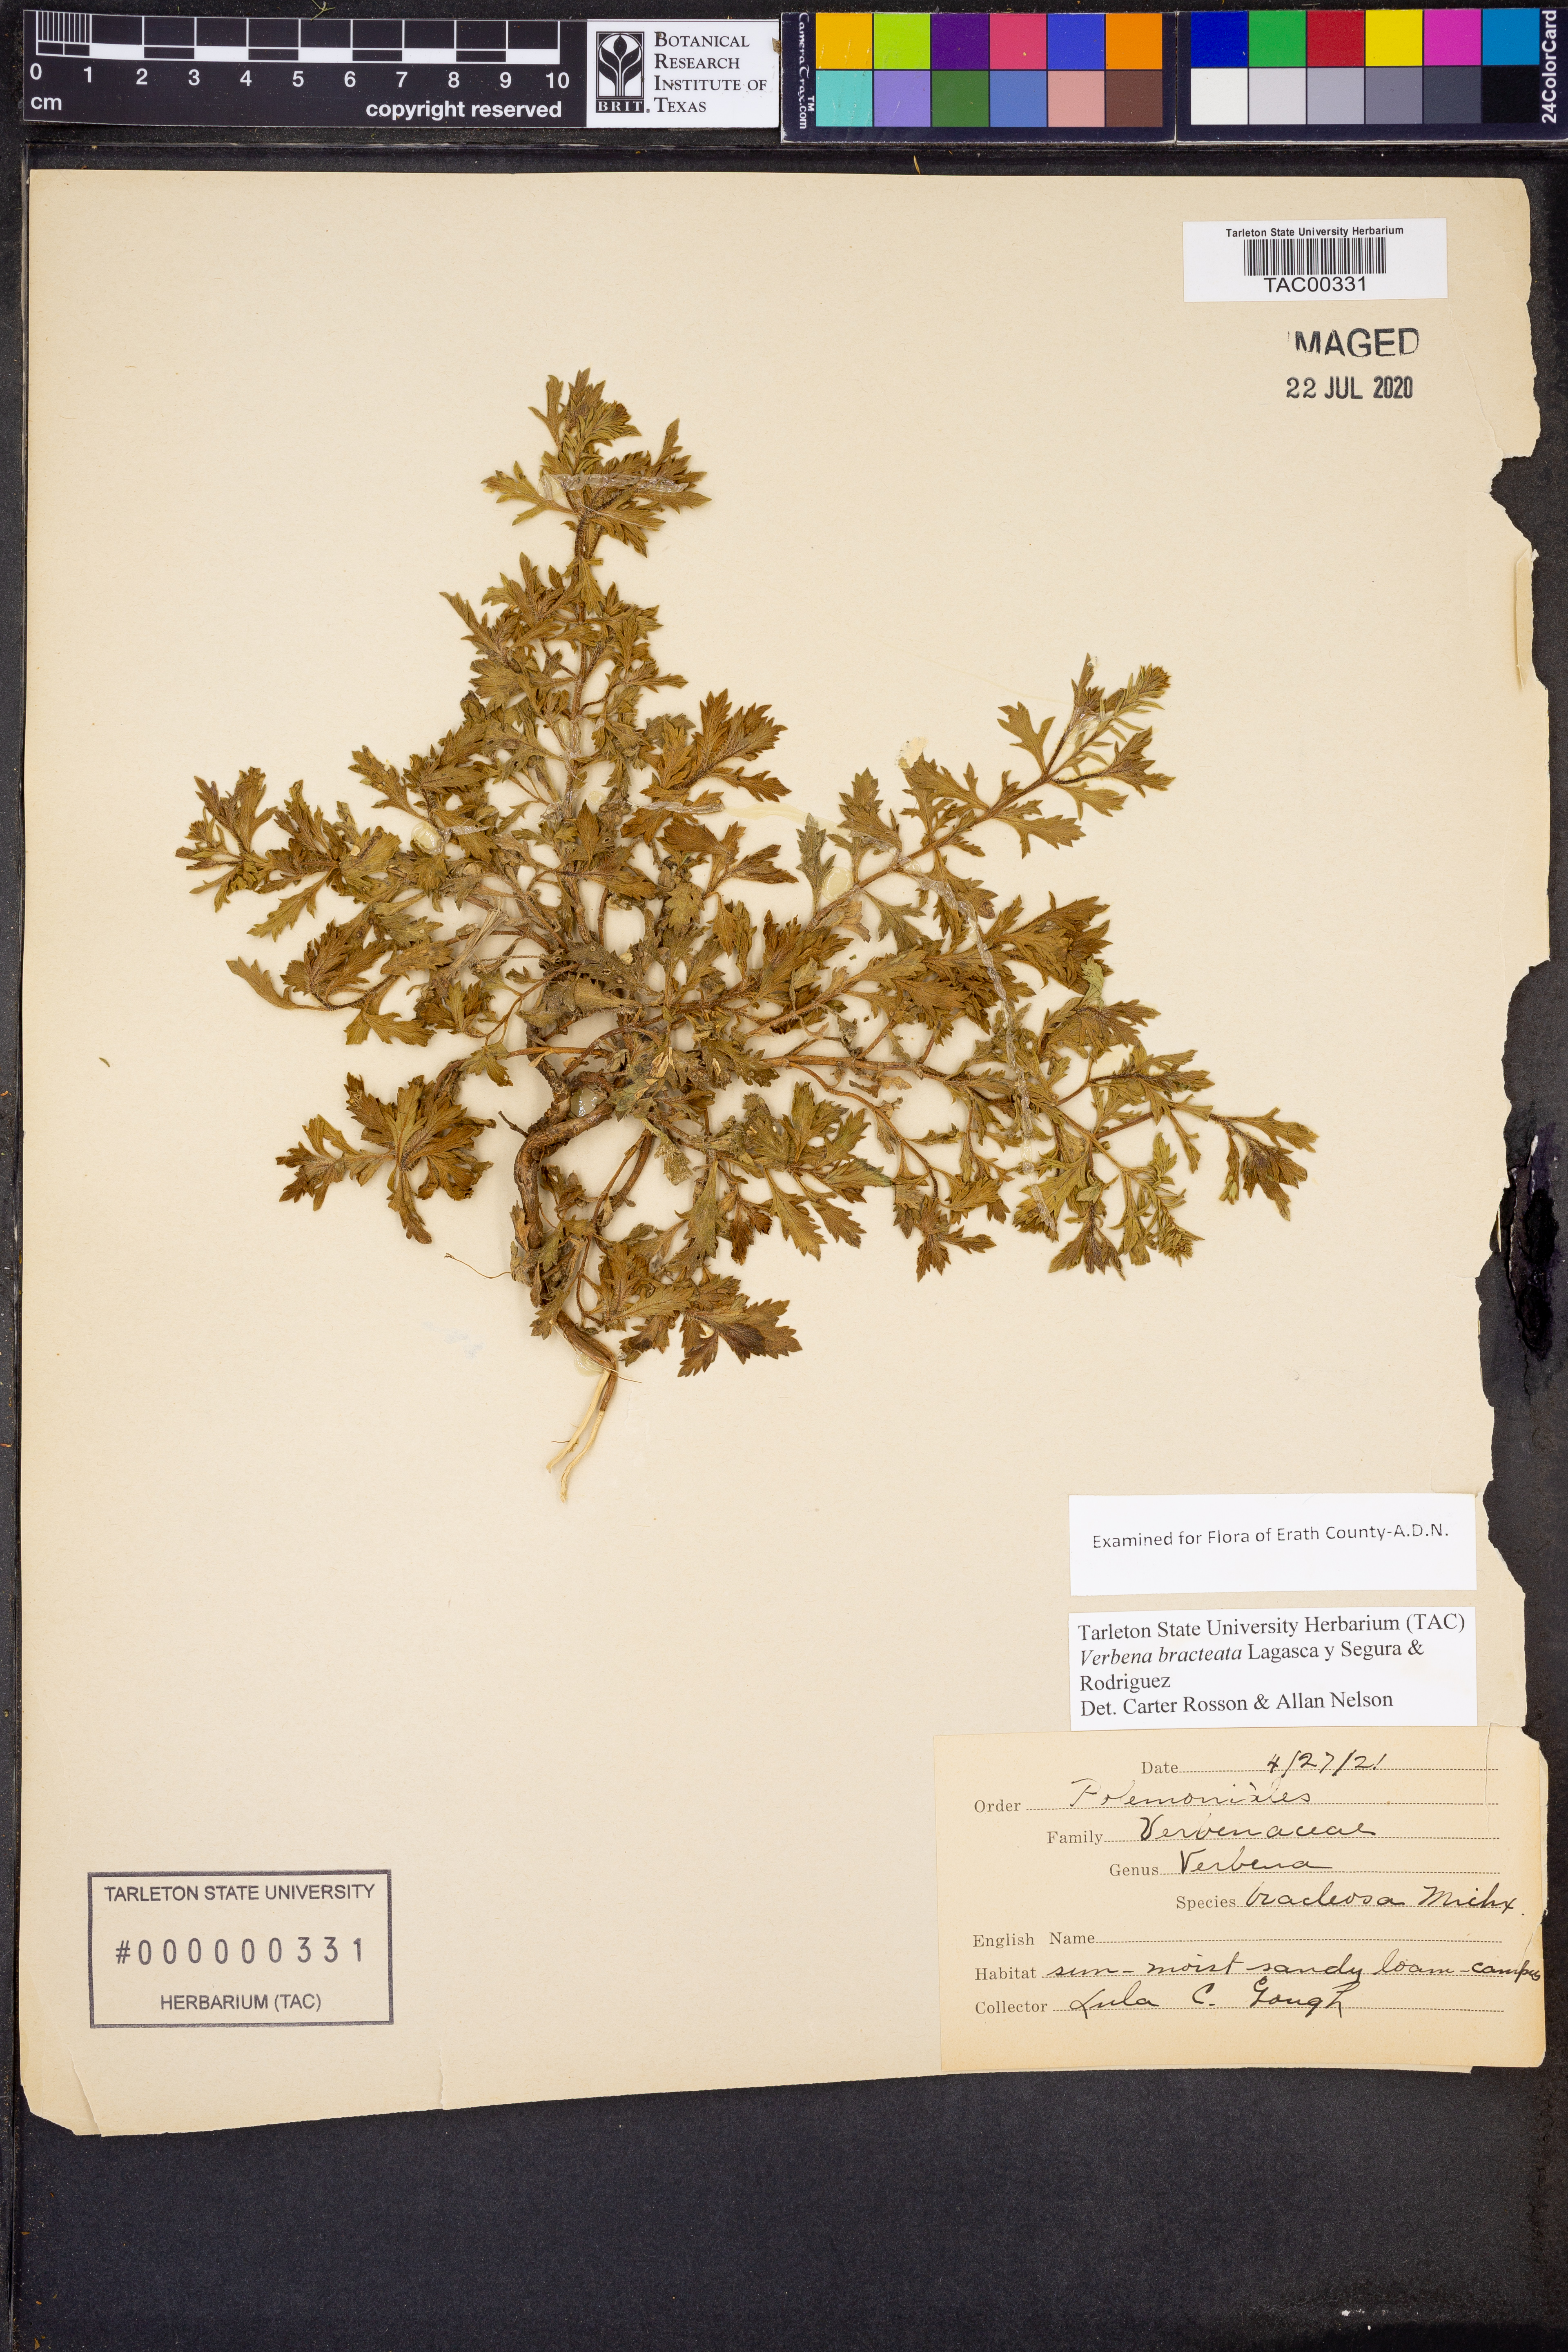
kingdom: Plantae
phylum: Tracheophyta
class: Magnoliopsida
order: Lamiales
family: Verbenaceae
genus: Verbena
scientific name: Verbena bracteata
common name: Bracted vervain
